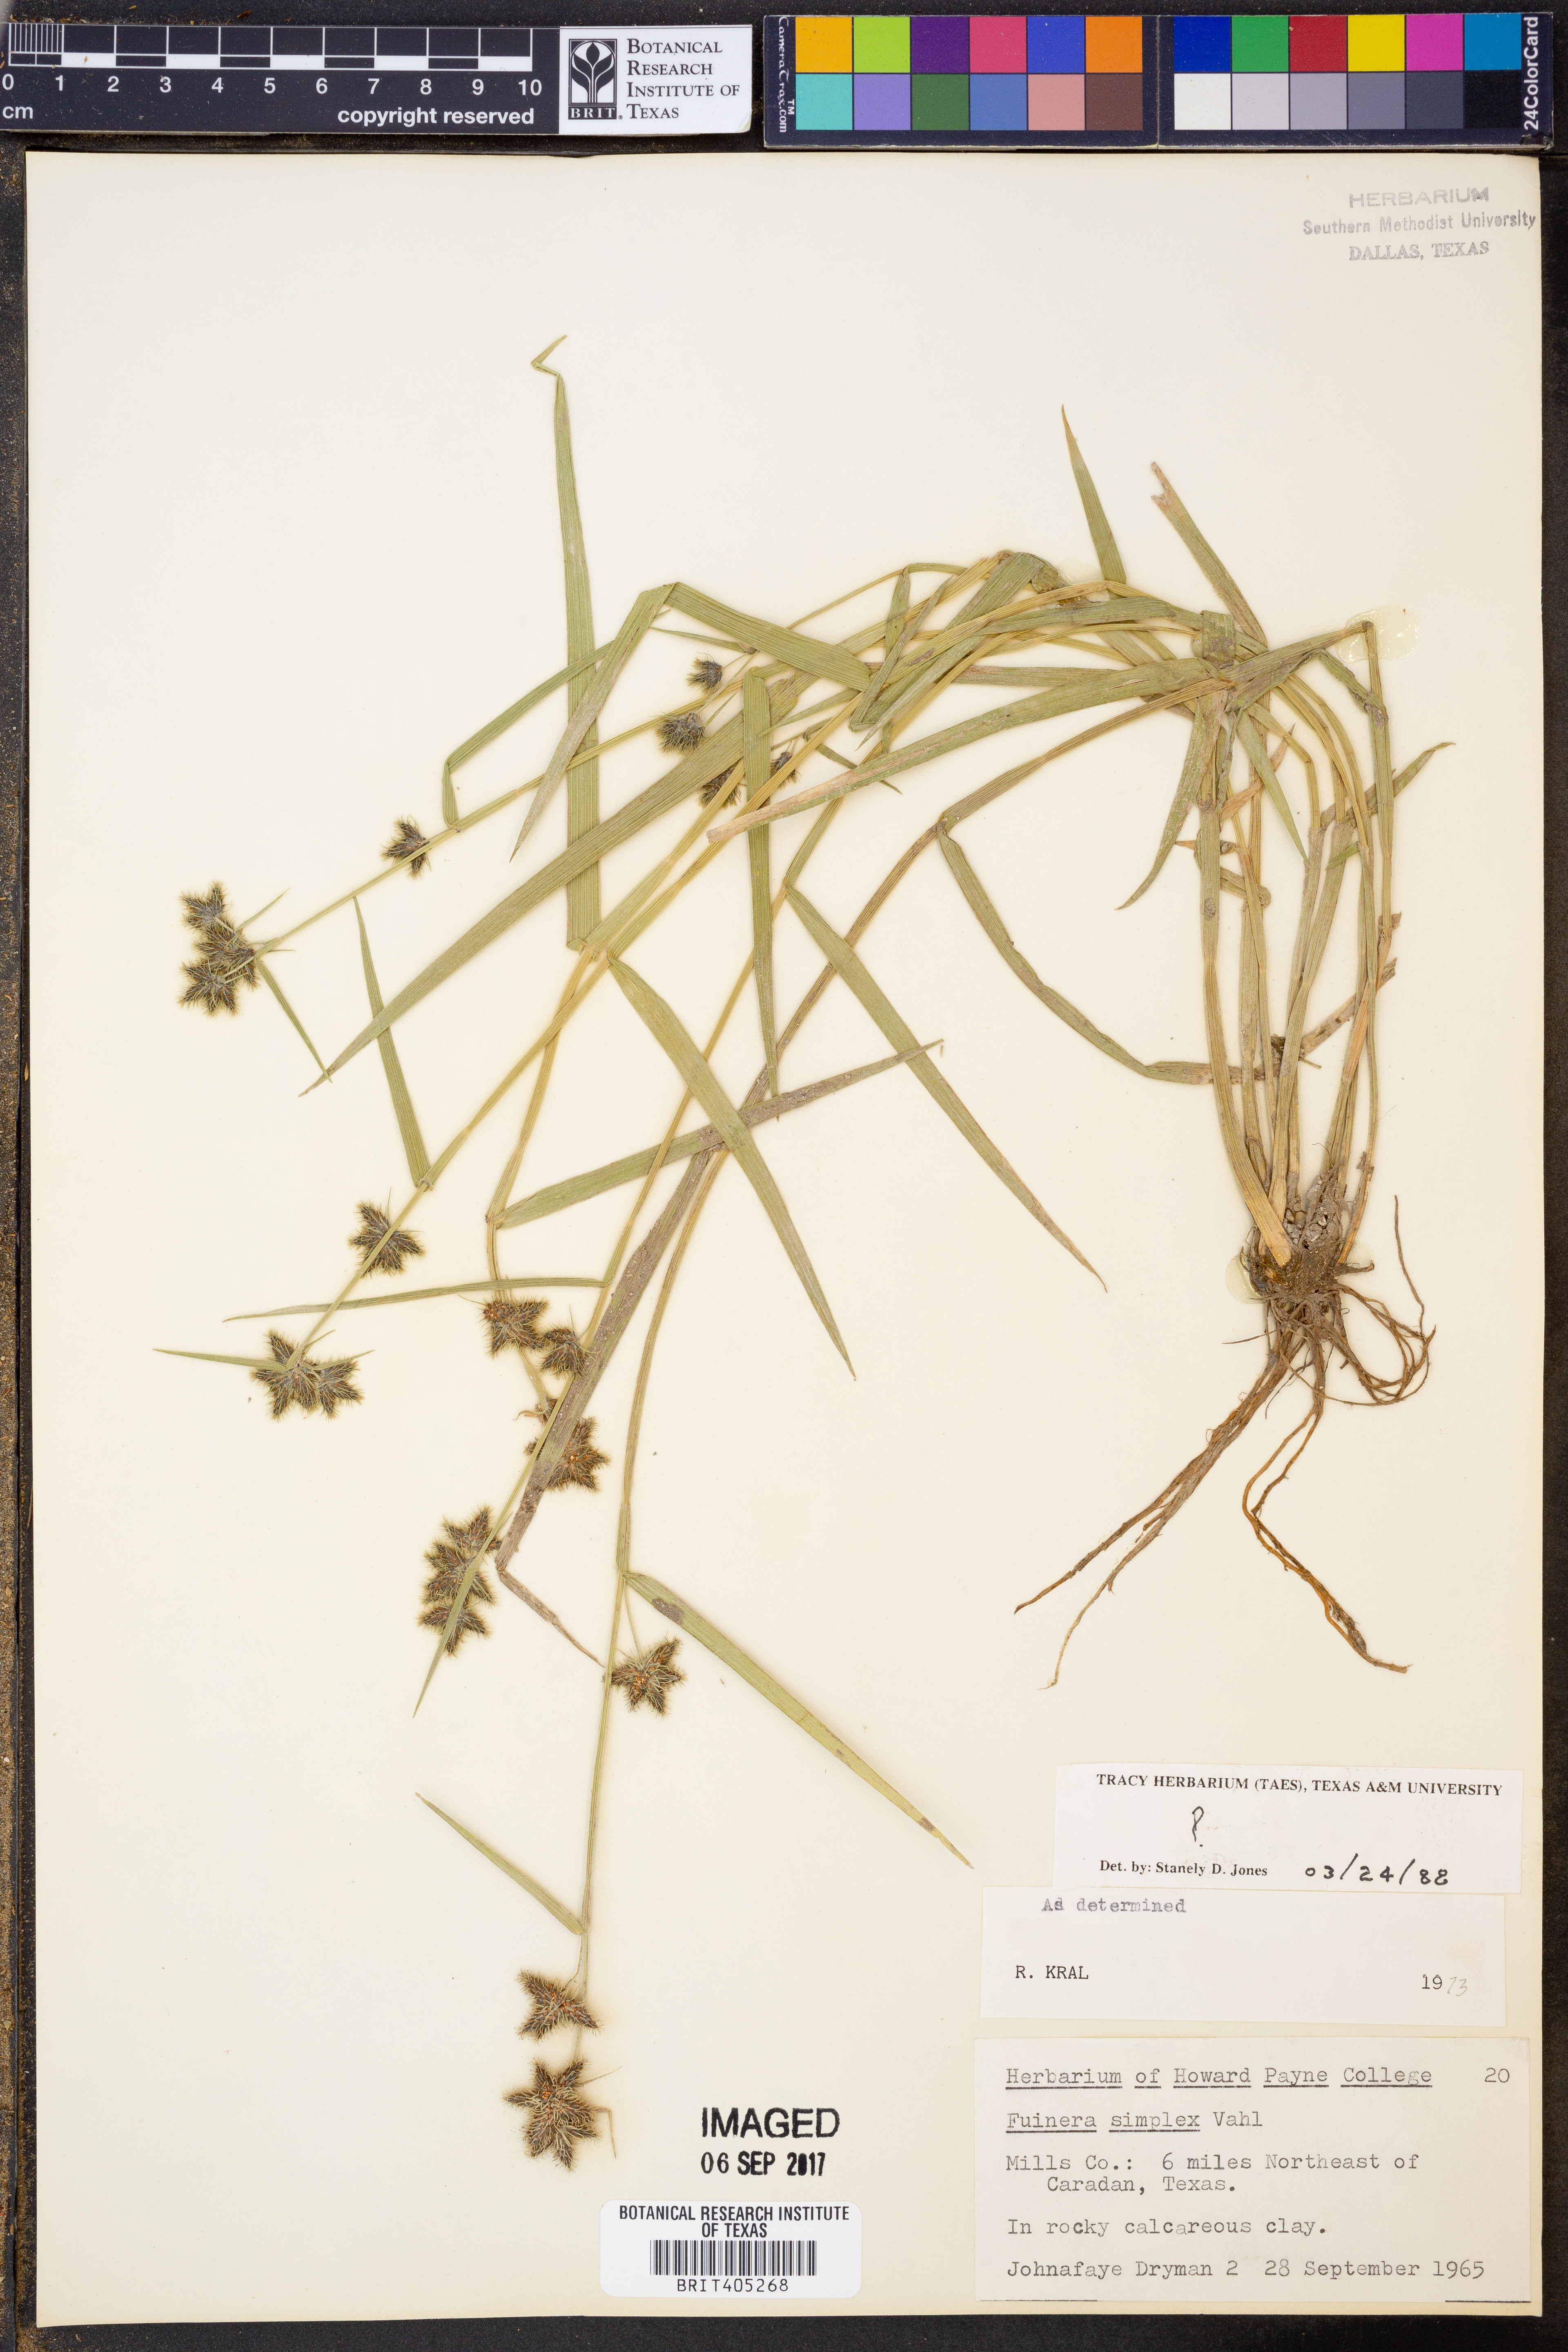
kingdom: Plantae
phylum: Tracheophyta
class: Liliopsida
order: Poales
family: Cyperaceae
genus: Fuirena
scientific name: Fuirena simplex
